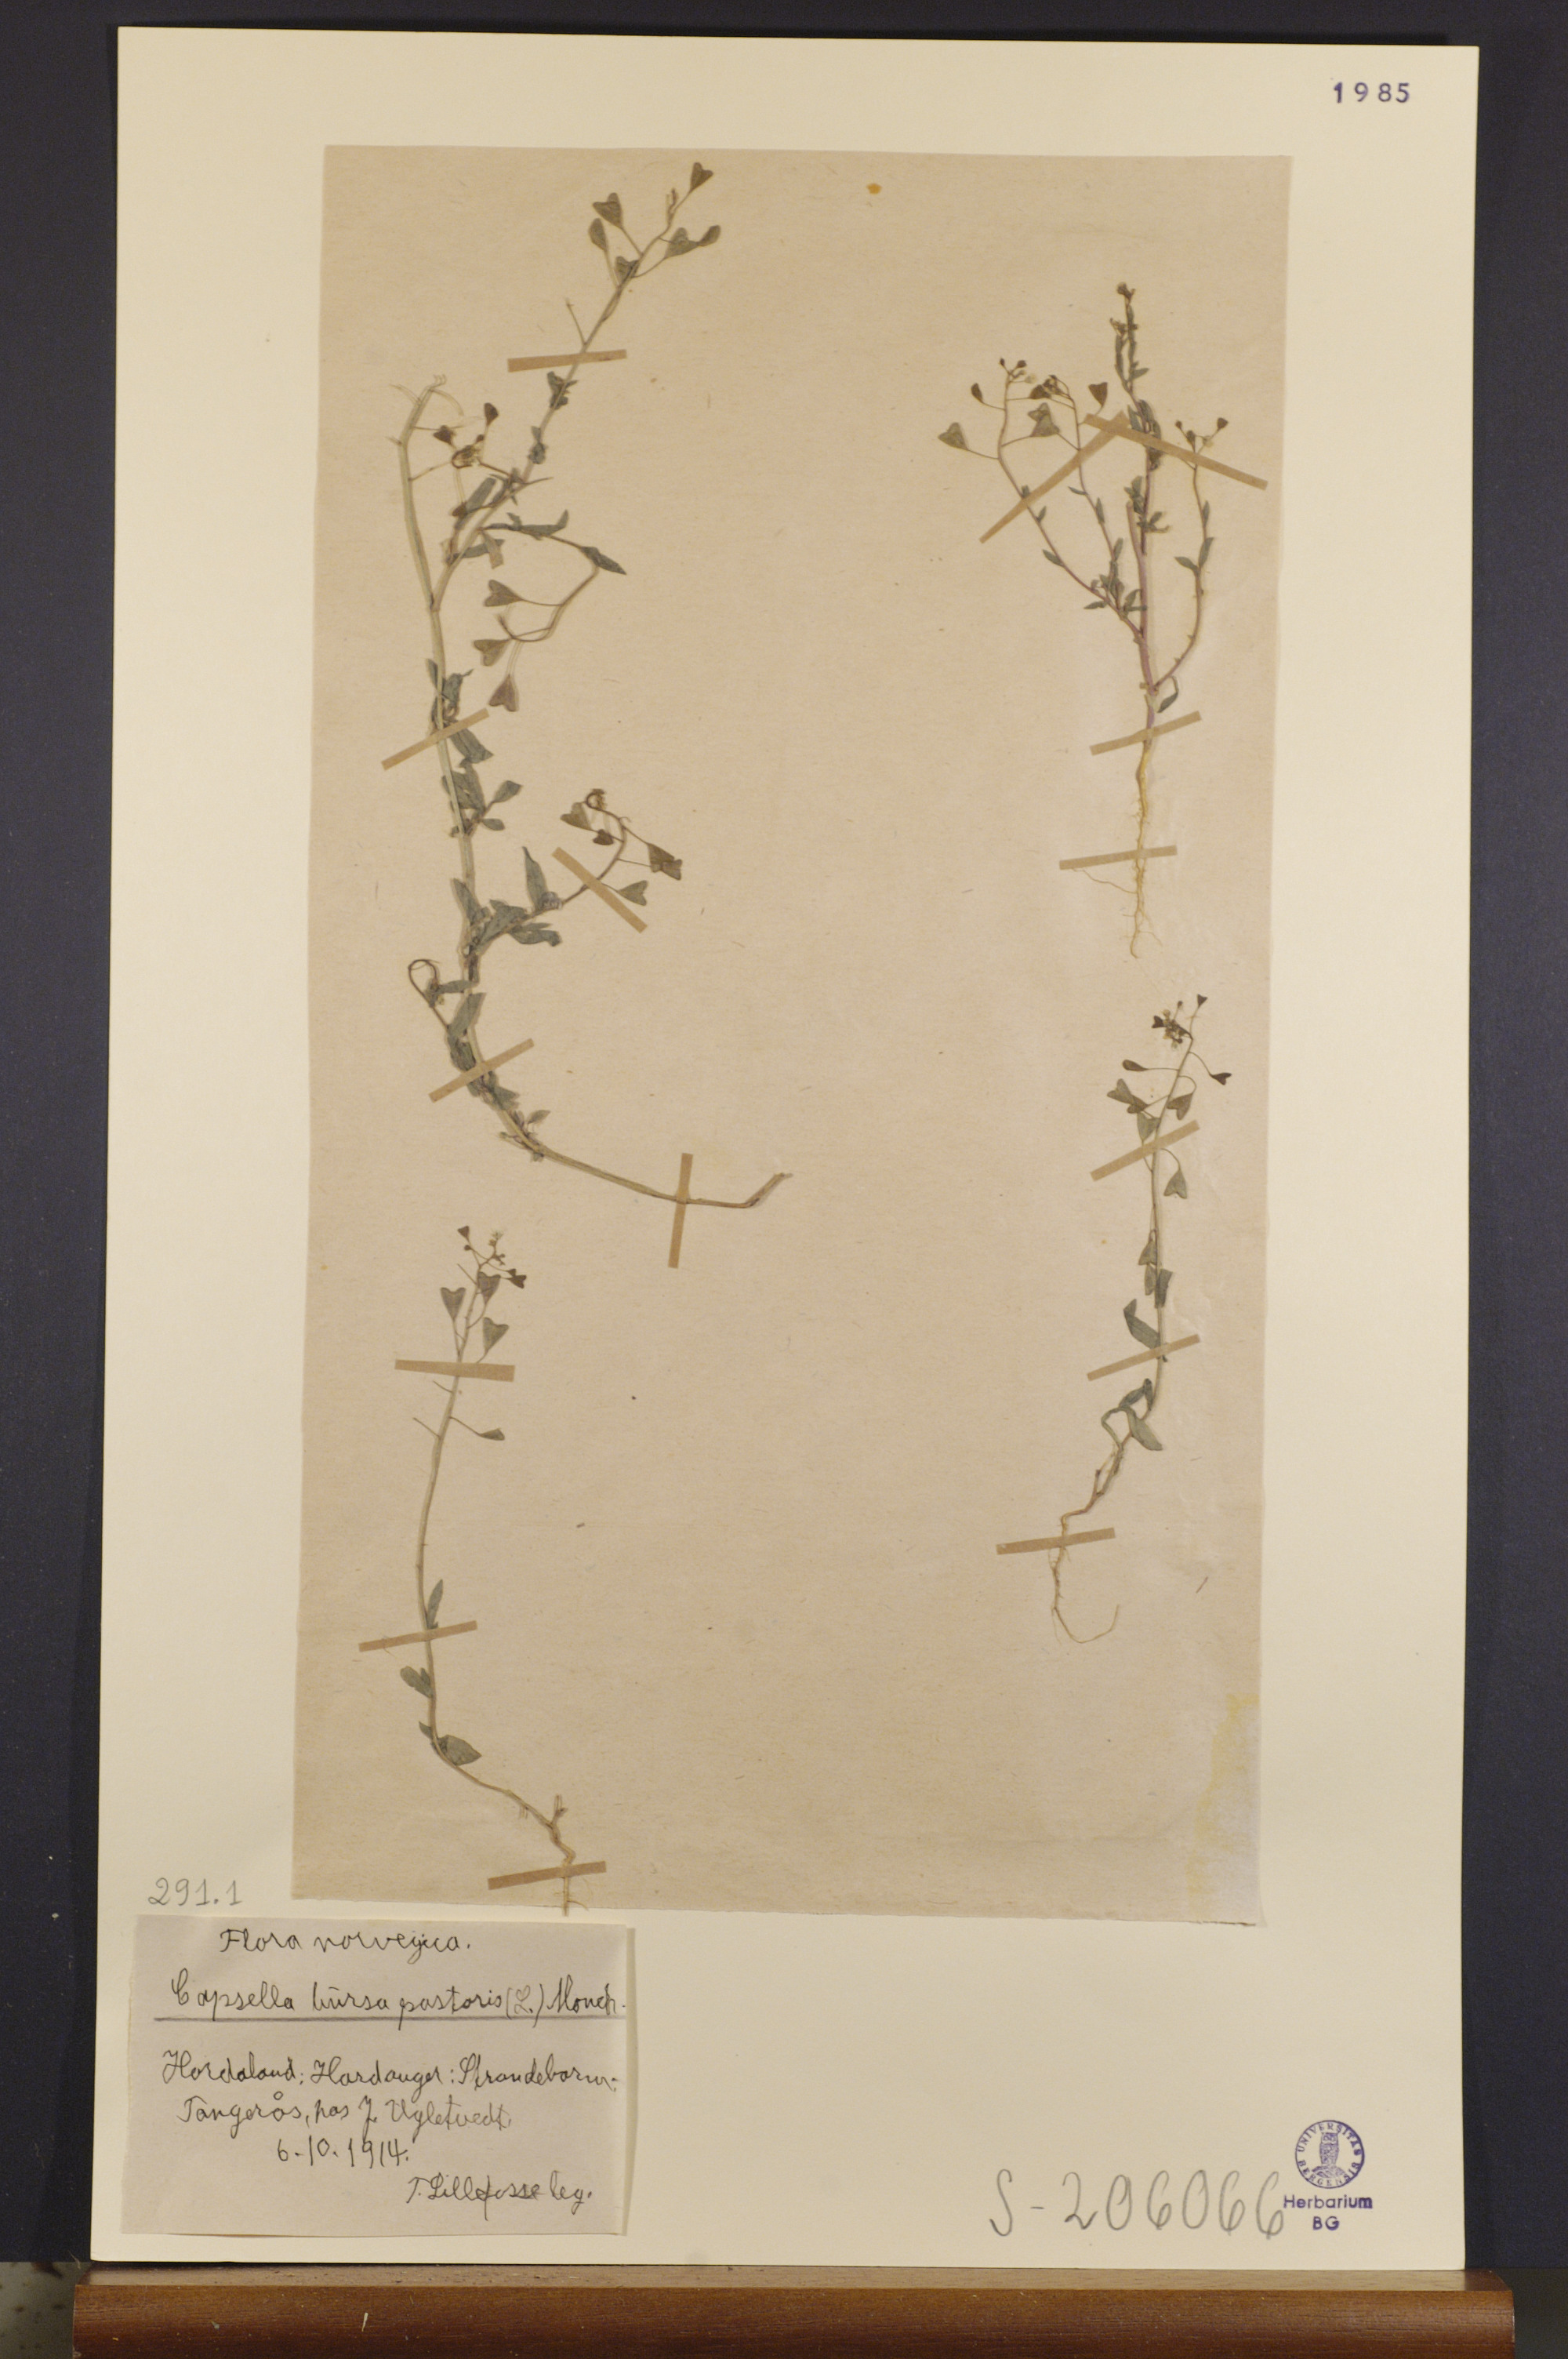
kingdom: Plantae
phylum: Tracheophyta
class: Magnoliopsida
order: Brassicales
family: Brassicaceae
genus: Capsella
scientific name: Capsella bursa-pastoris
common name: Shepherd's purse
